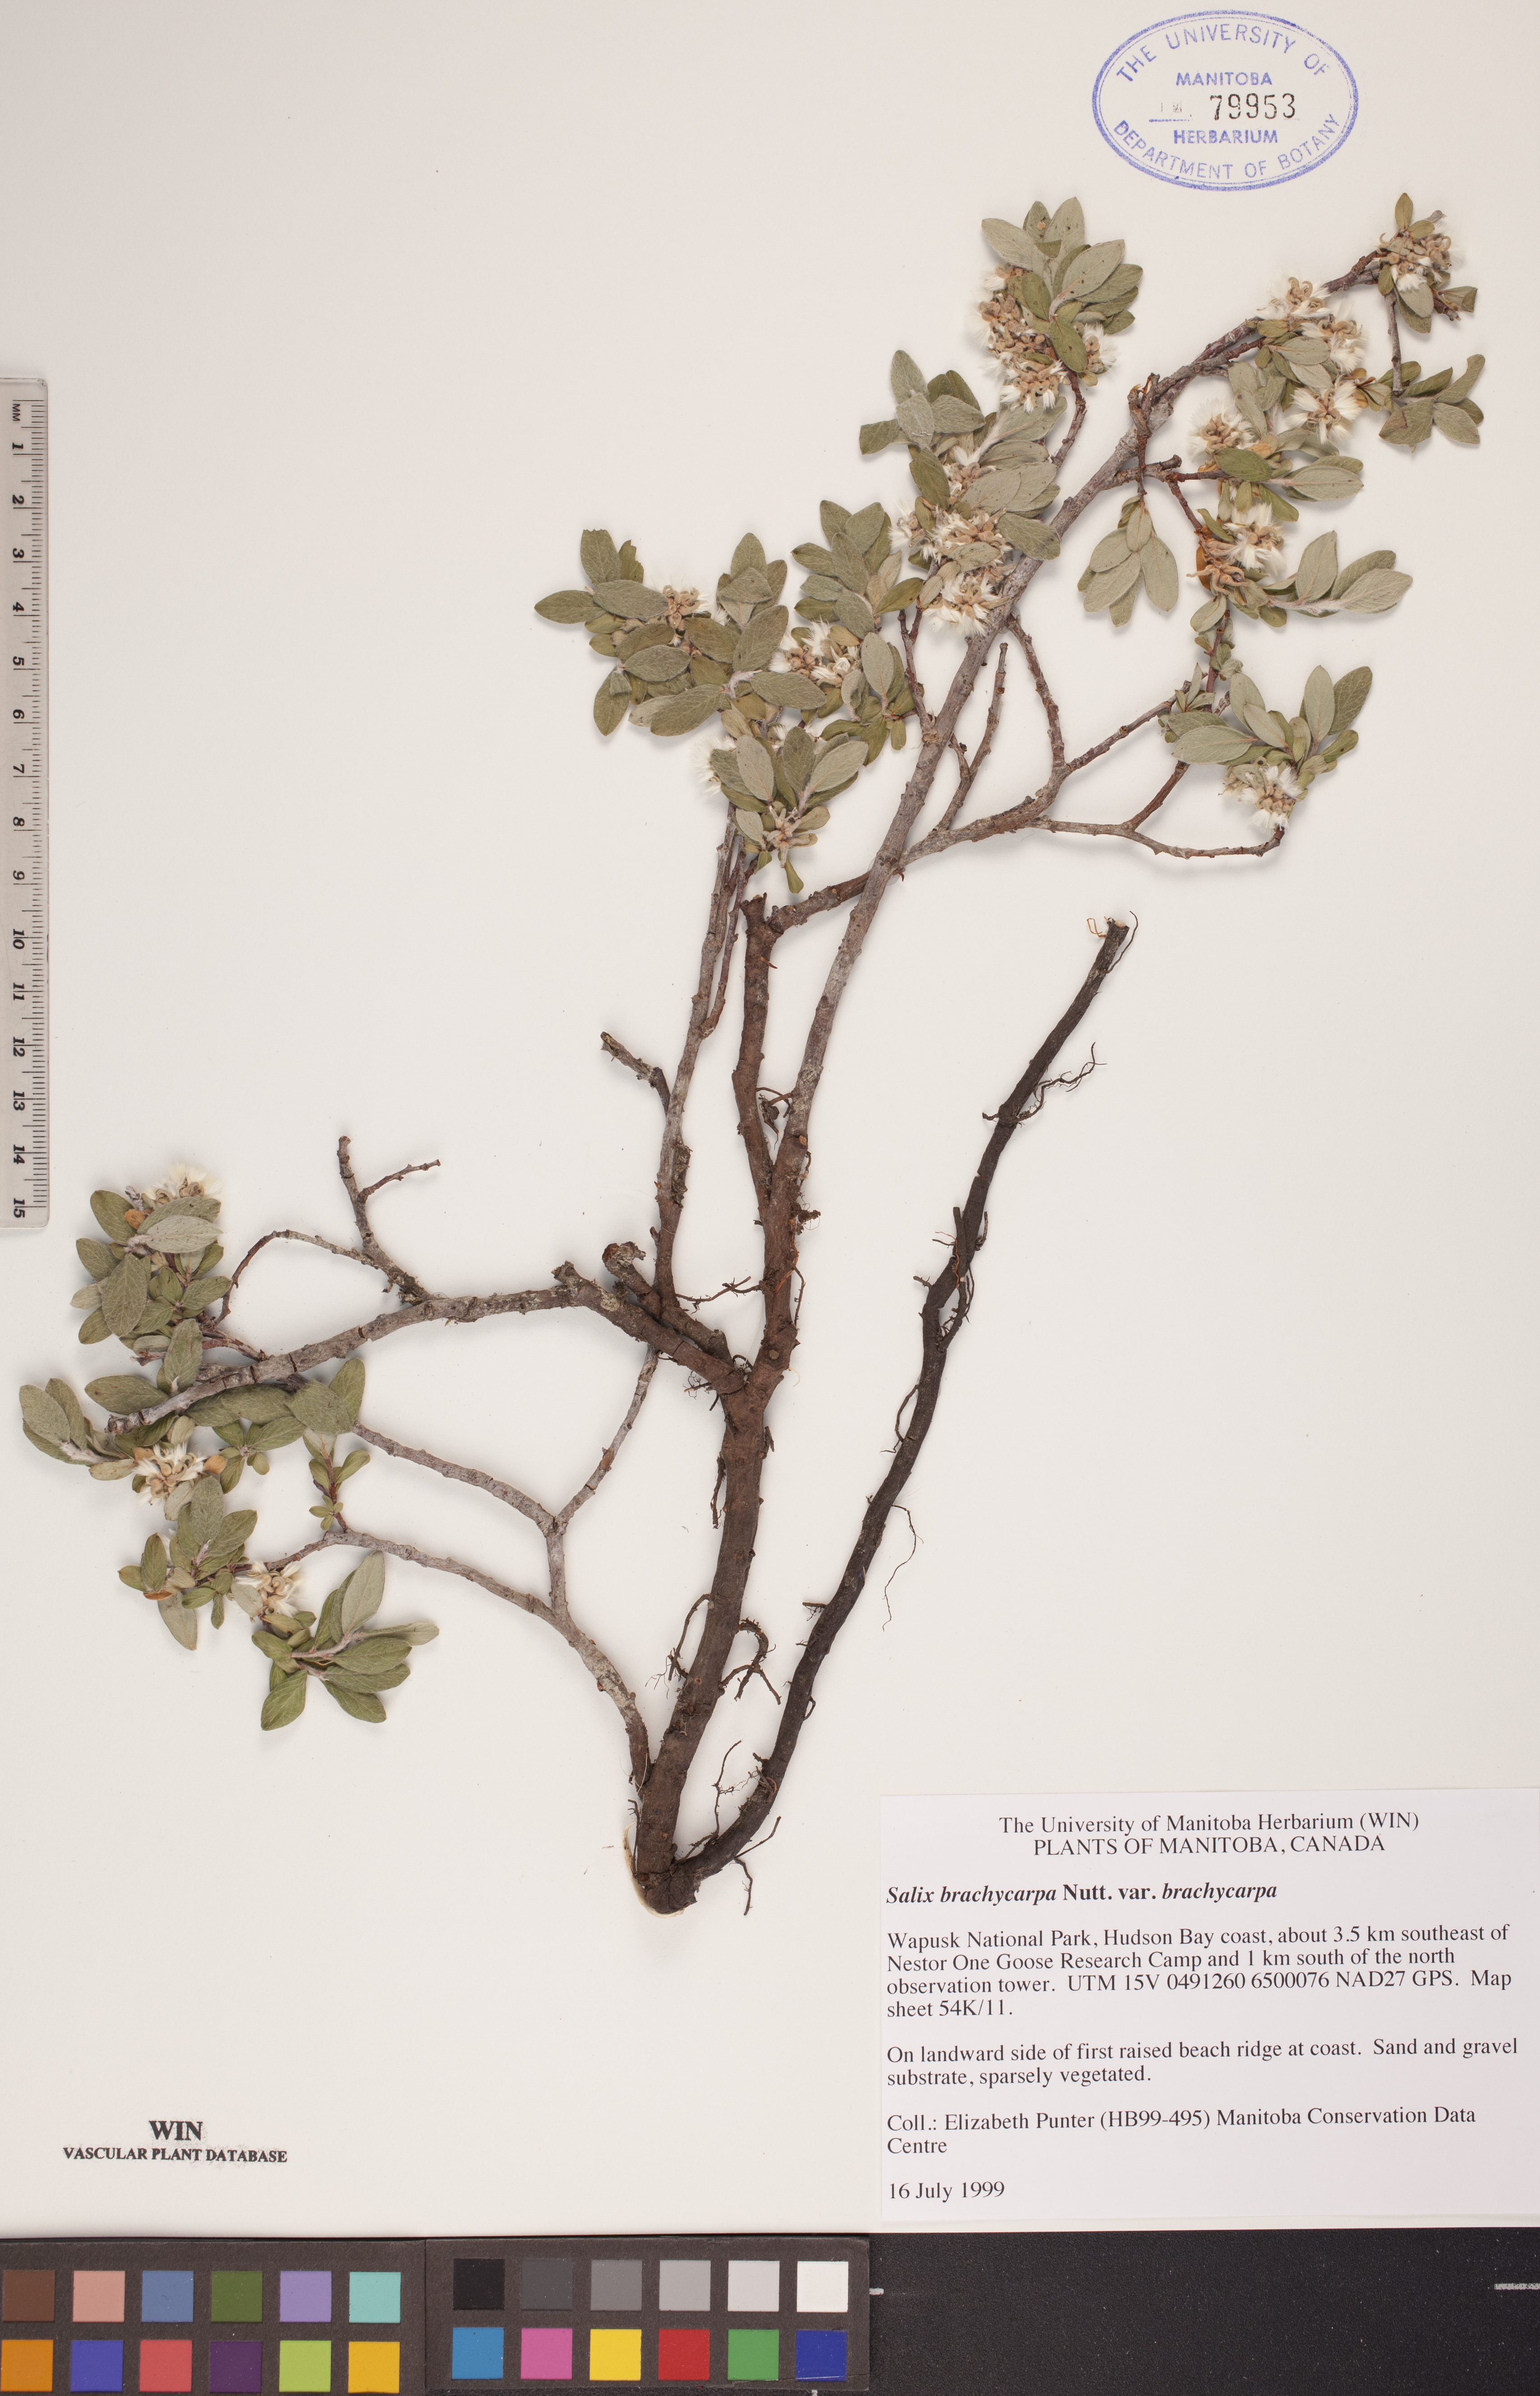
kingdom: Plantae
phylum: Tracheophyta
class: Magnoliopsida
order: Malpighiales
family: Salicaceae
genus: Salix
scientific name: Salix brachycarpa
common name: Barren-ground willow
